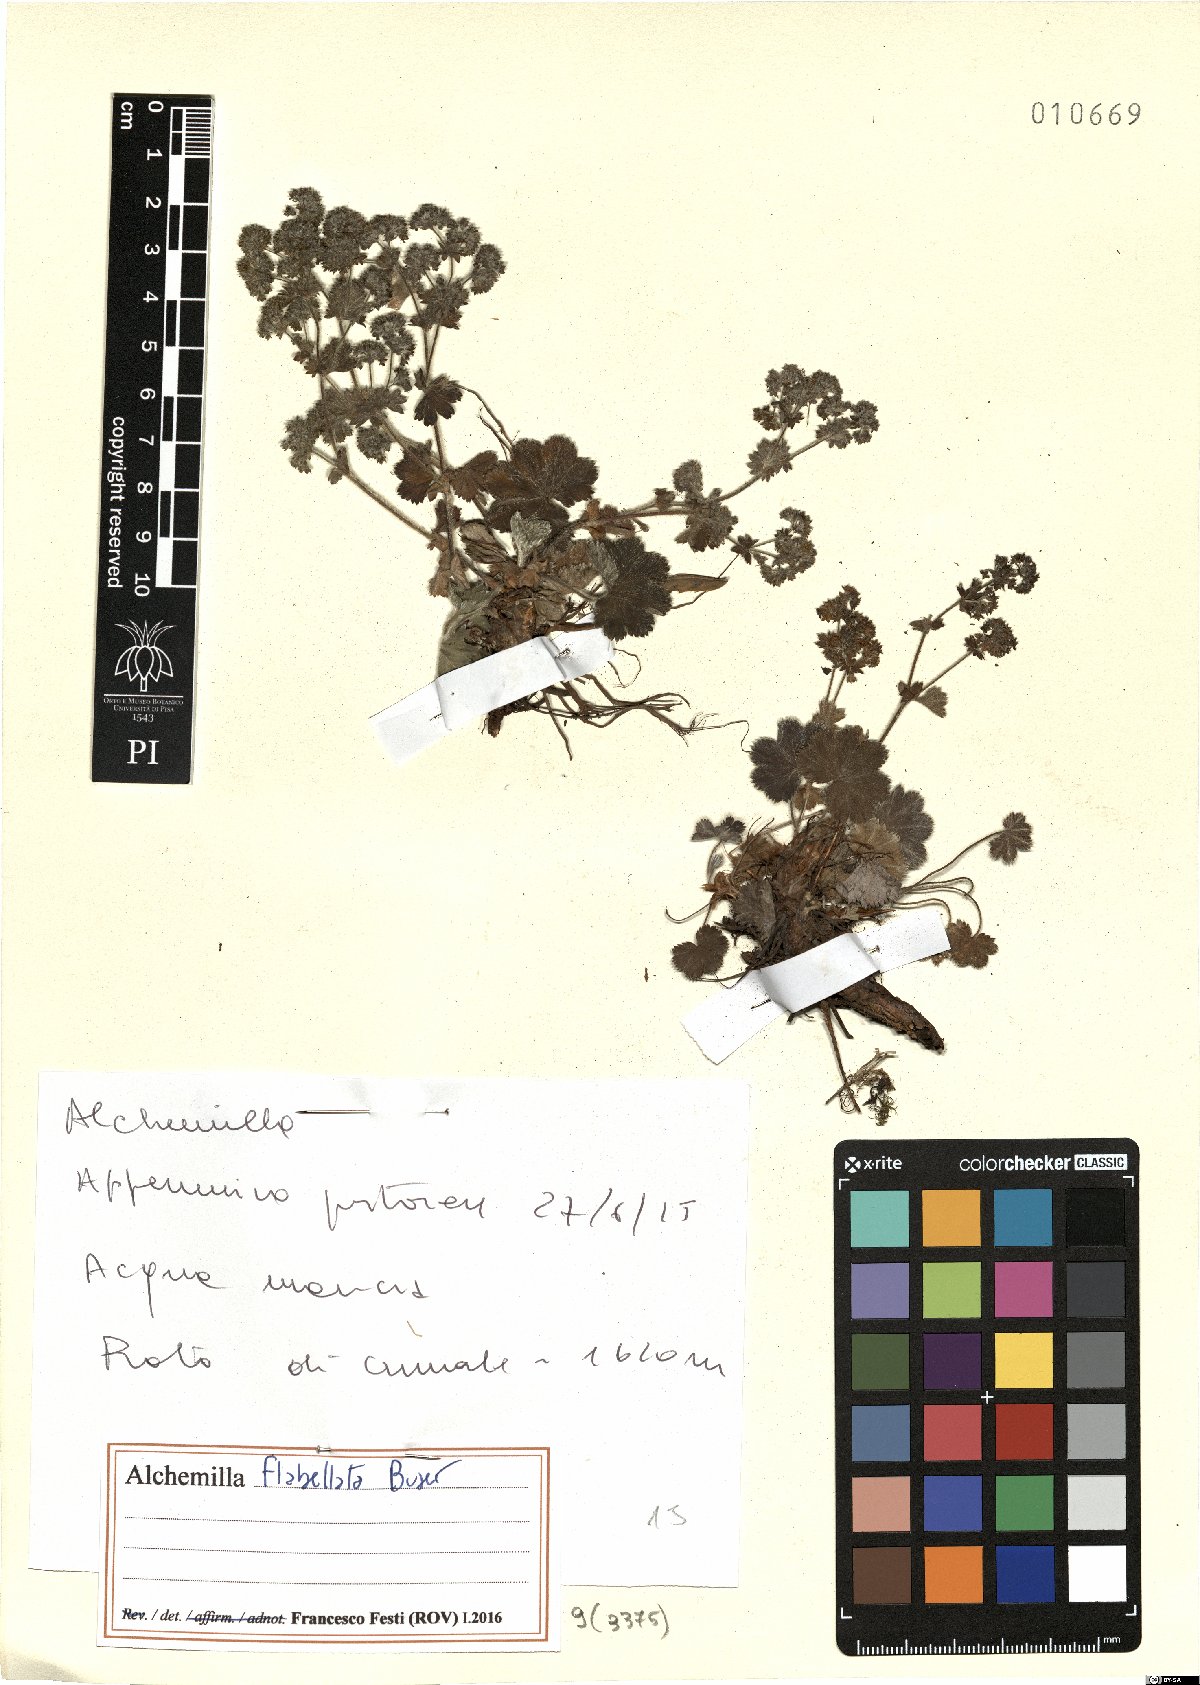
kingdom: Plantae
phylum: Tracheophyta
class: Magnoliopsida
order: Rosales
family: Rosaceae
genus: Alchemilla
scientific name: Alchemilla flabellata
